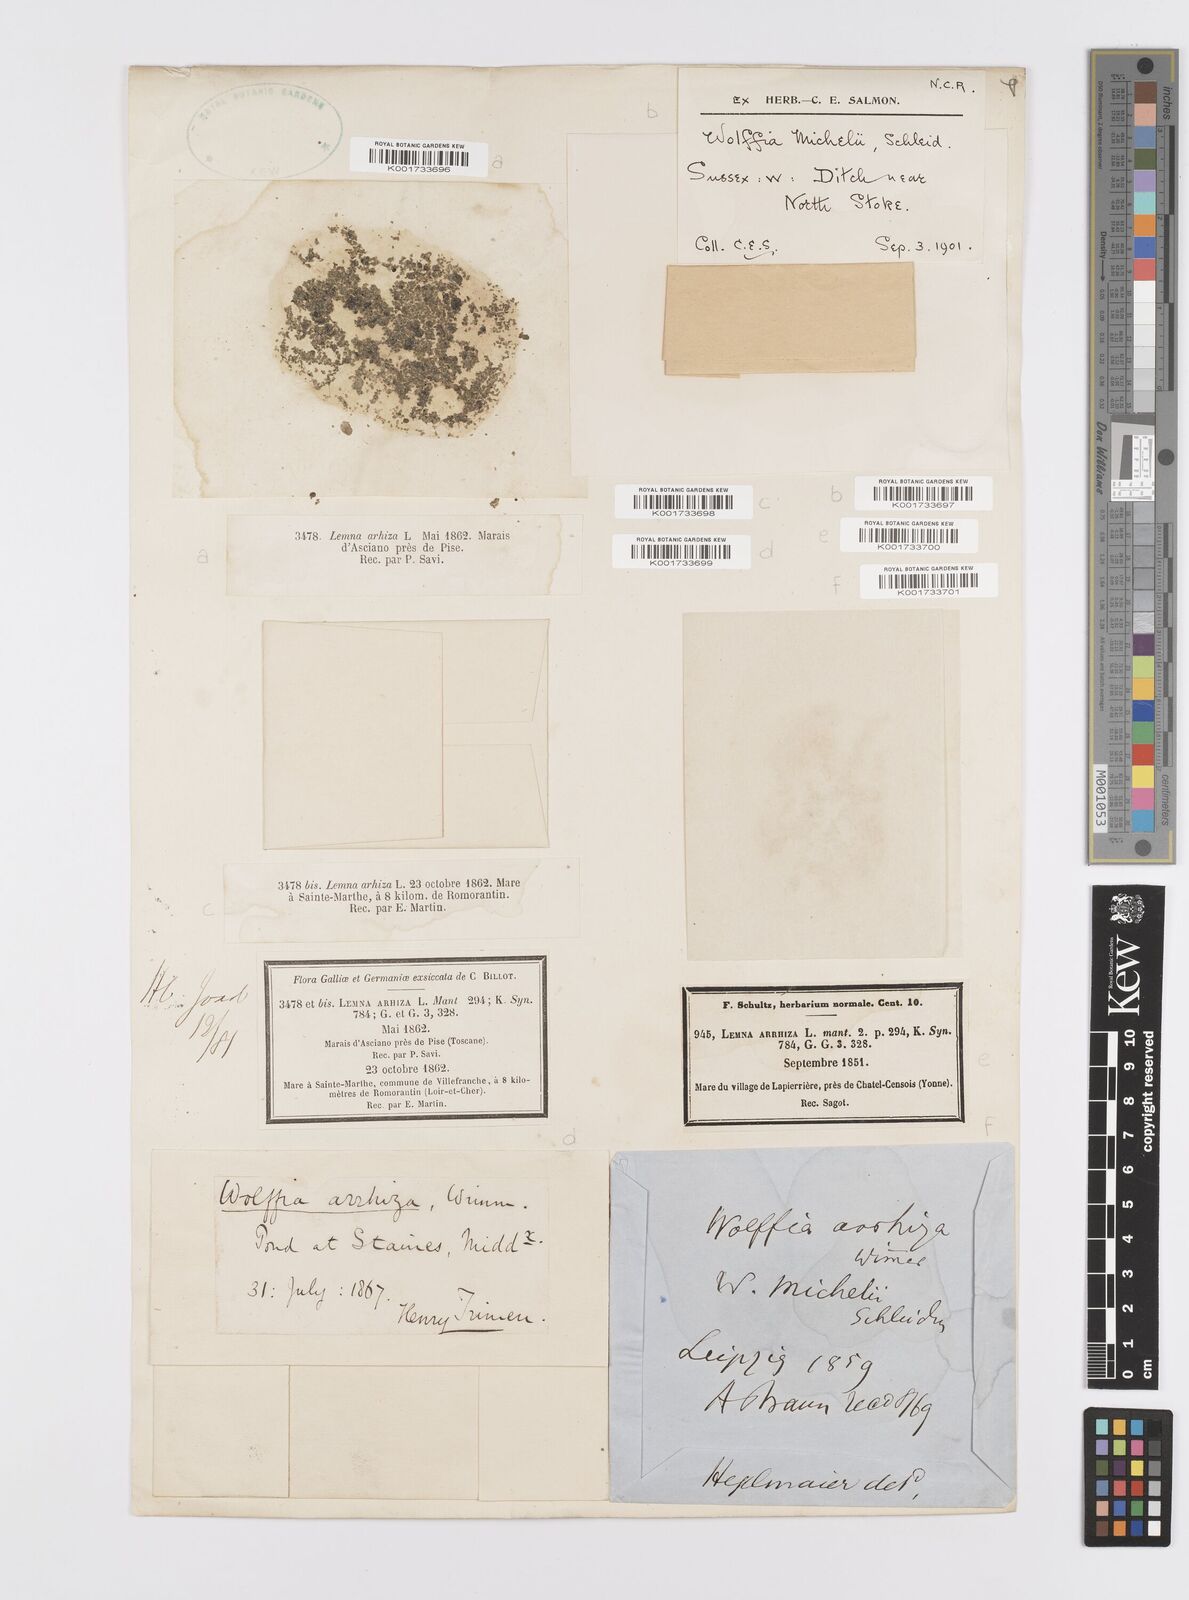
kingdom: Plantae
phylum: Tracheophyta
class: Liliopsida
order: Alismatales
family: Araceae
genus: Wolffia
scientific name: Wolffia arrhiza
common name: Rootless duckweed
